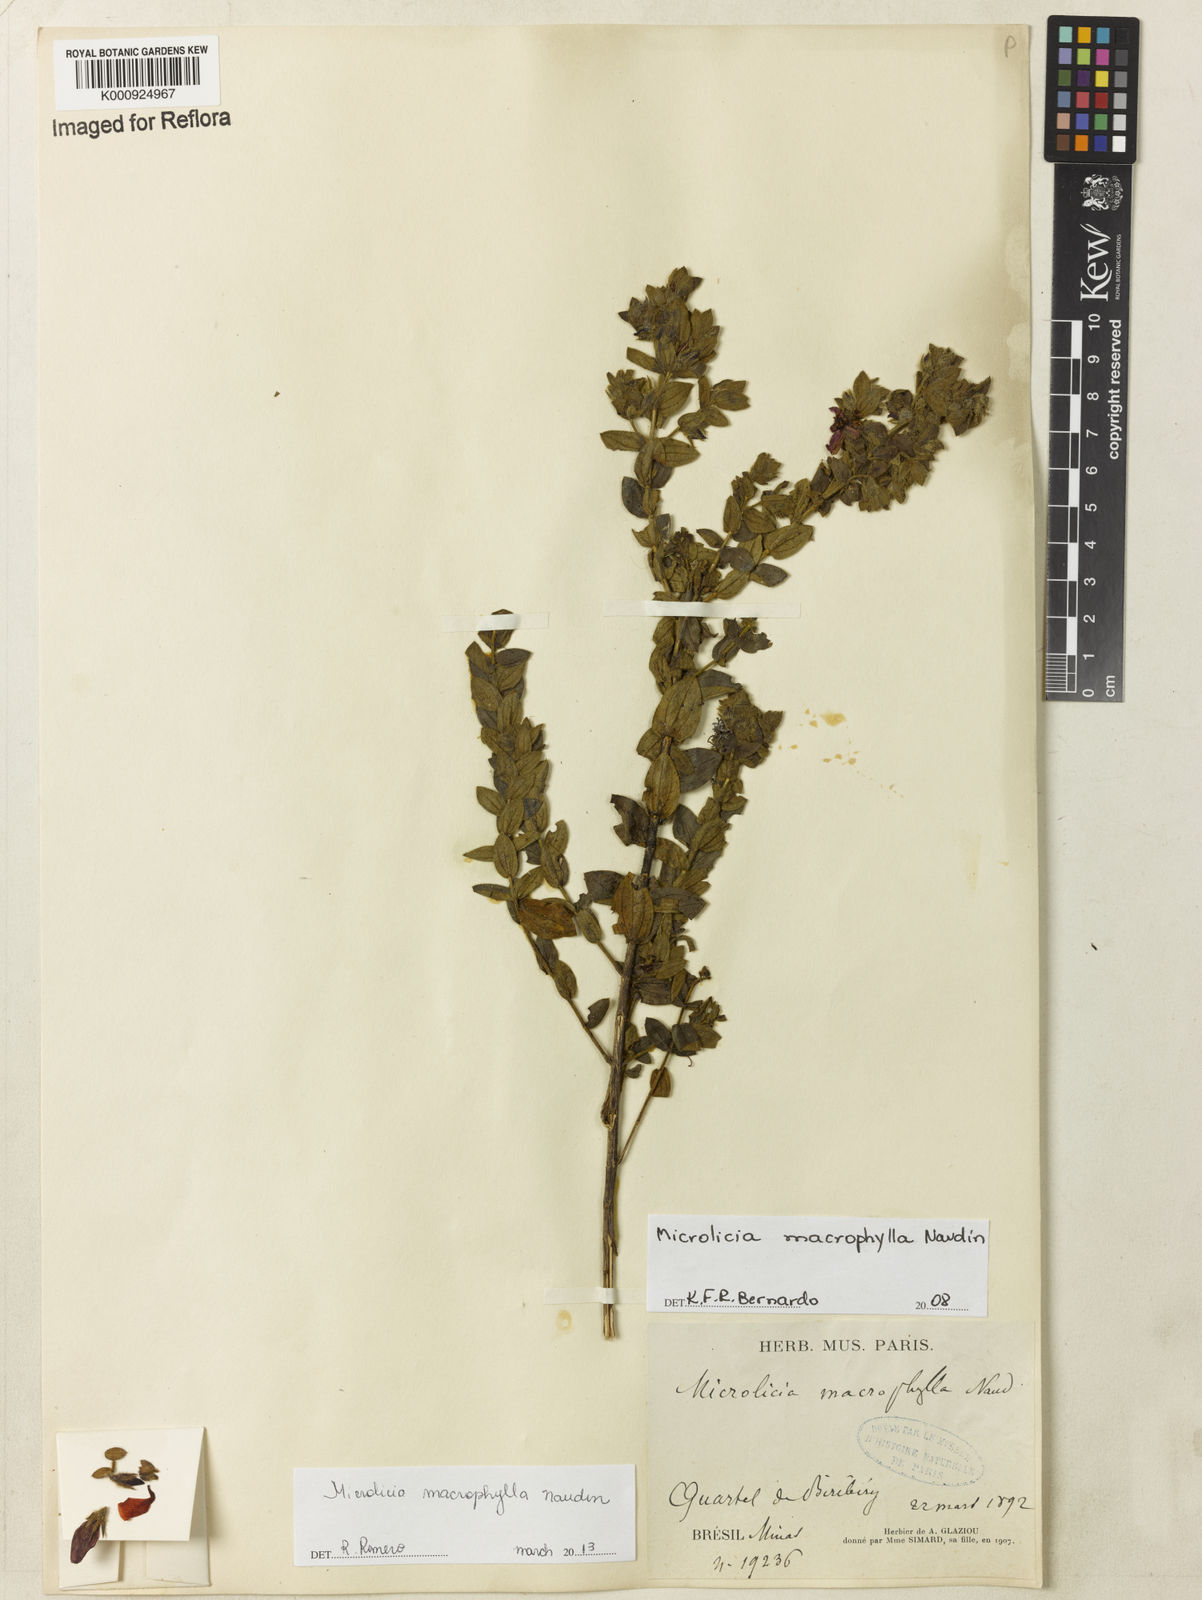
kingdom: Plantae
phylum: Tracheophyta
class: Magnoliopsida
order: Myrtales
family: Melastomataceae
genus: Microlicia
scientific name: Microlicia macrophylla
